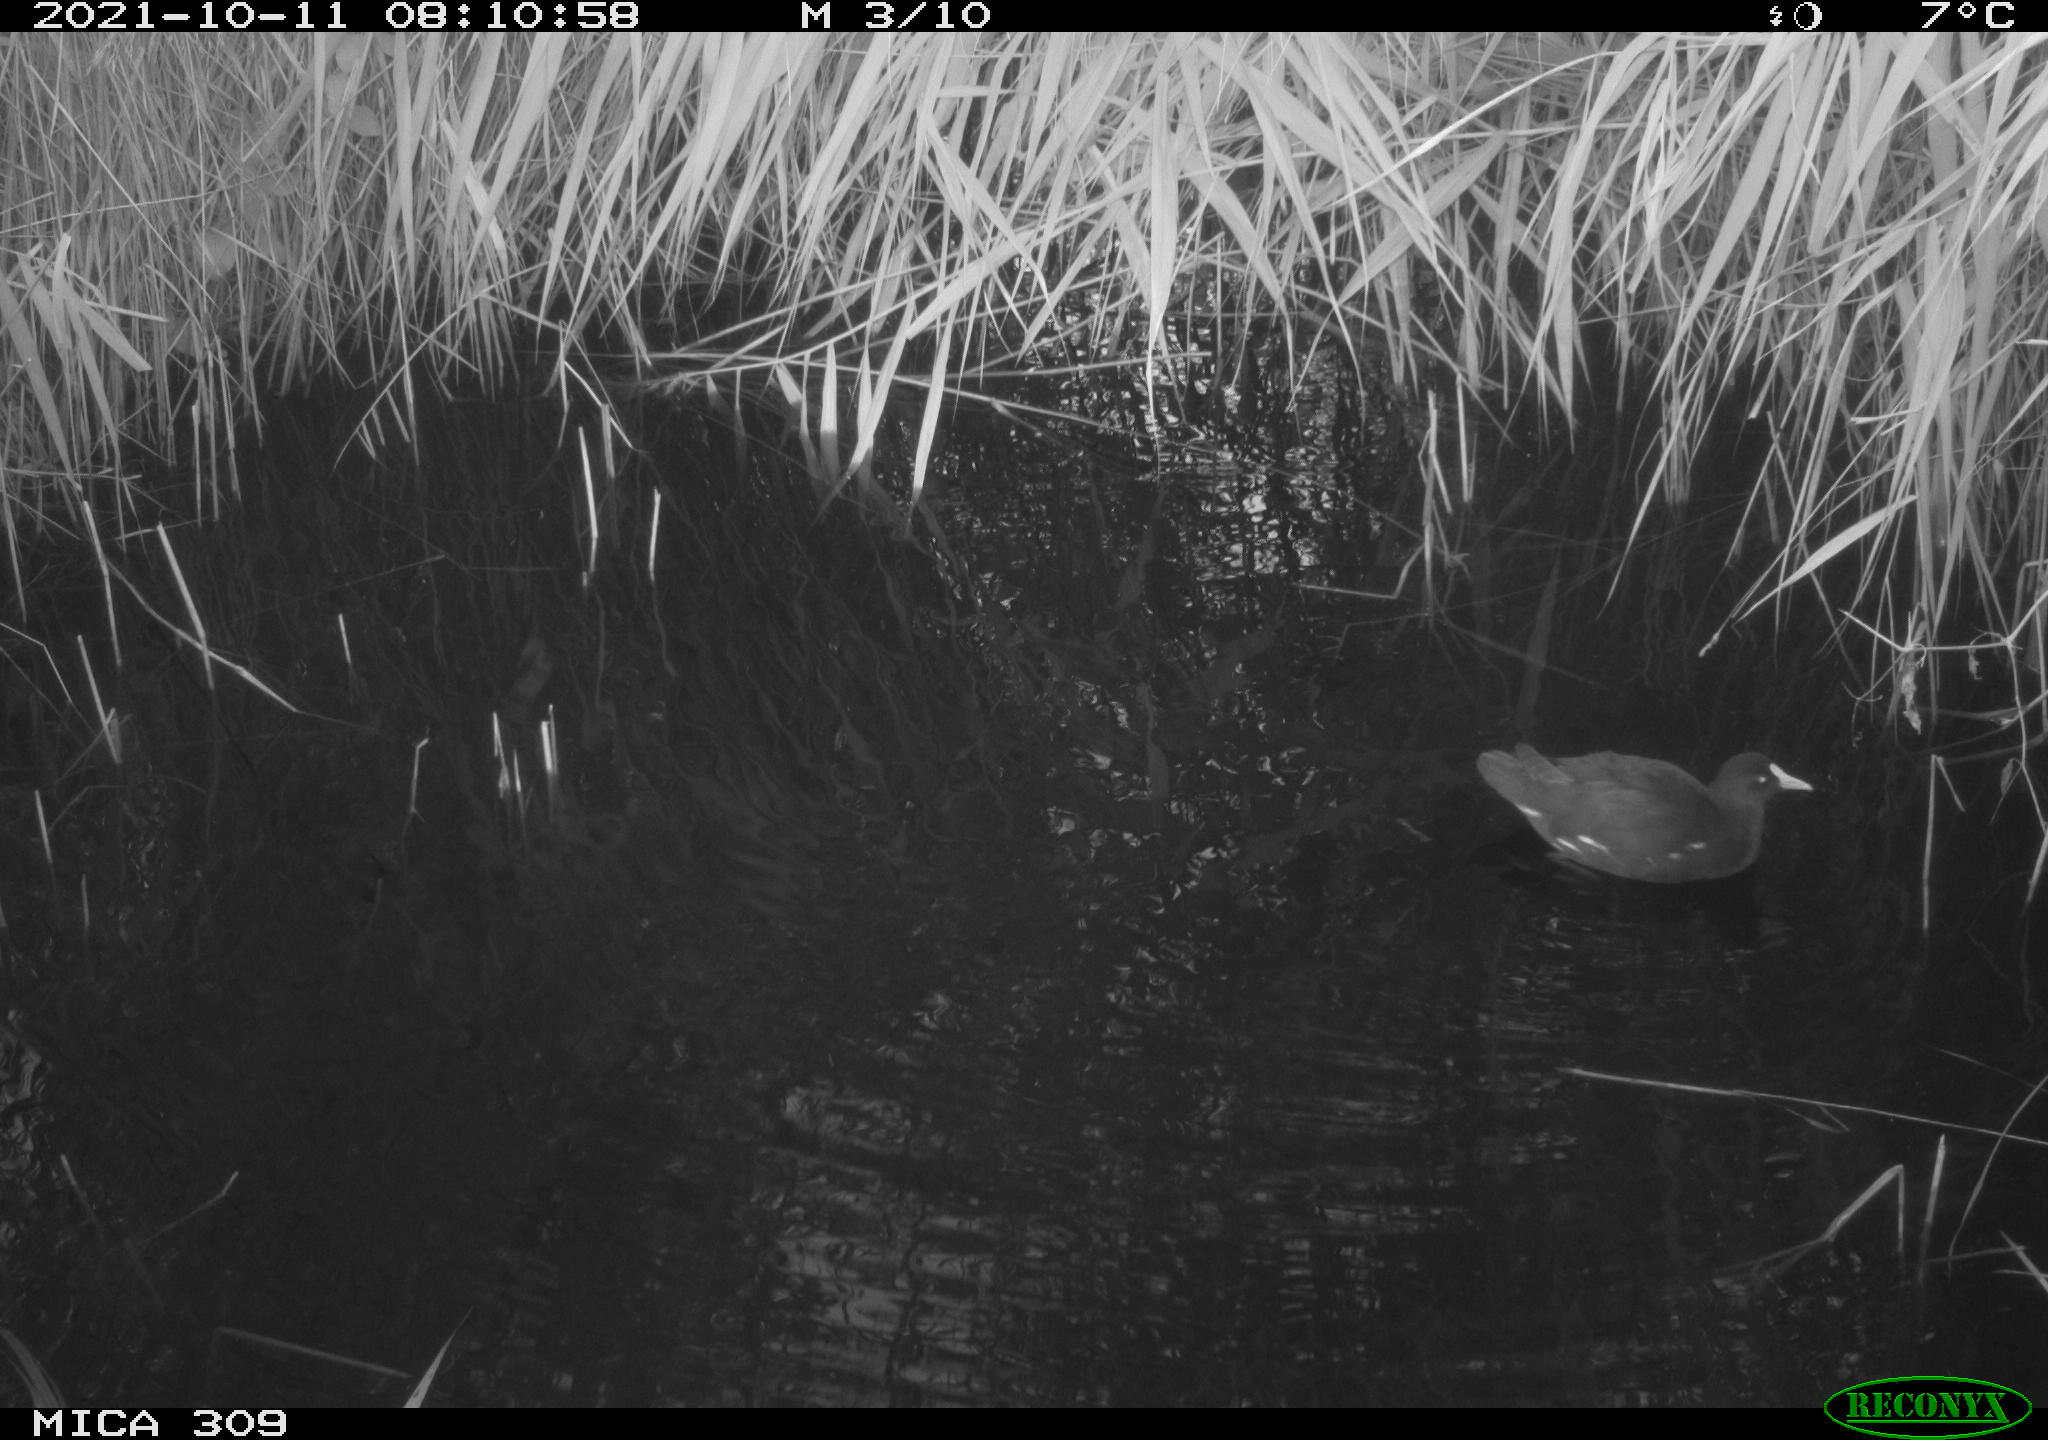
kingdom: Animalia
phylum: Chordata
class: Aves
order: Gruiformes
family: Rallidae
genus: Gallinula
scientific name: Gallinula chloropus
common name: Common moorhen
